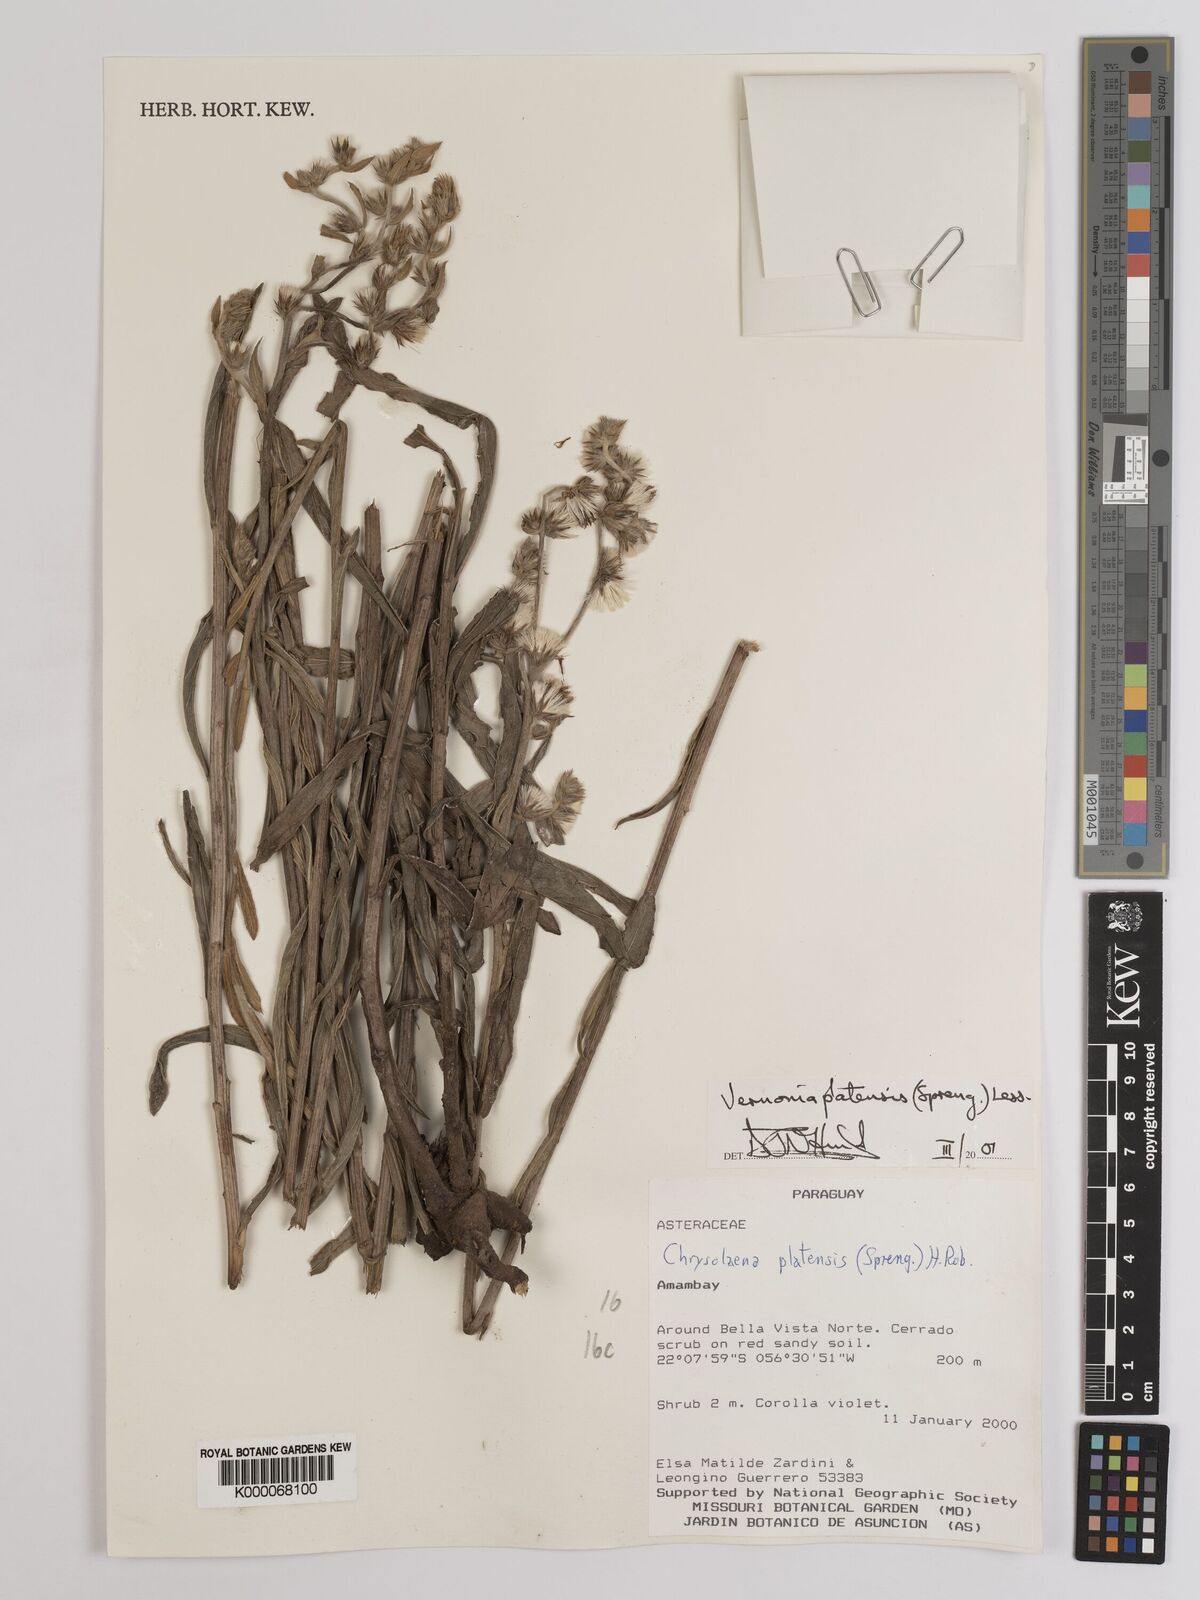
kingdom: Plantae
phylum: Tracheophyta
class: Magnoliopsida
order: Asterales
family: Asteraceae
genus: Chrysolaena
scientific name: Chrysolaena platensis
